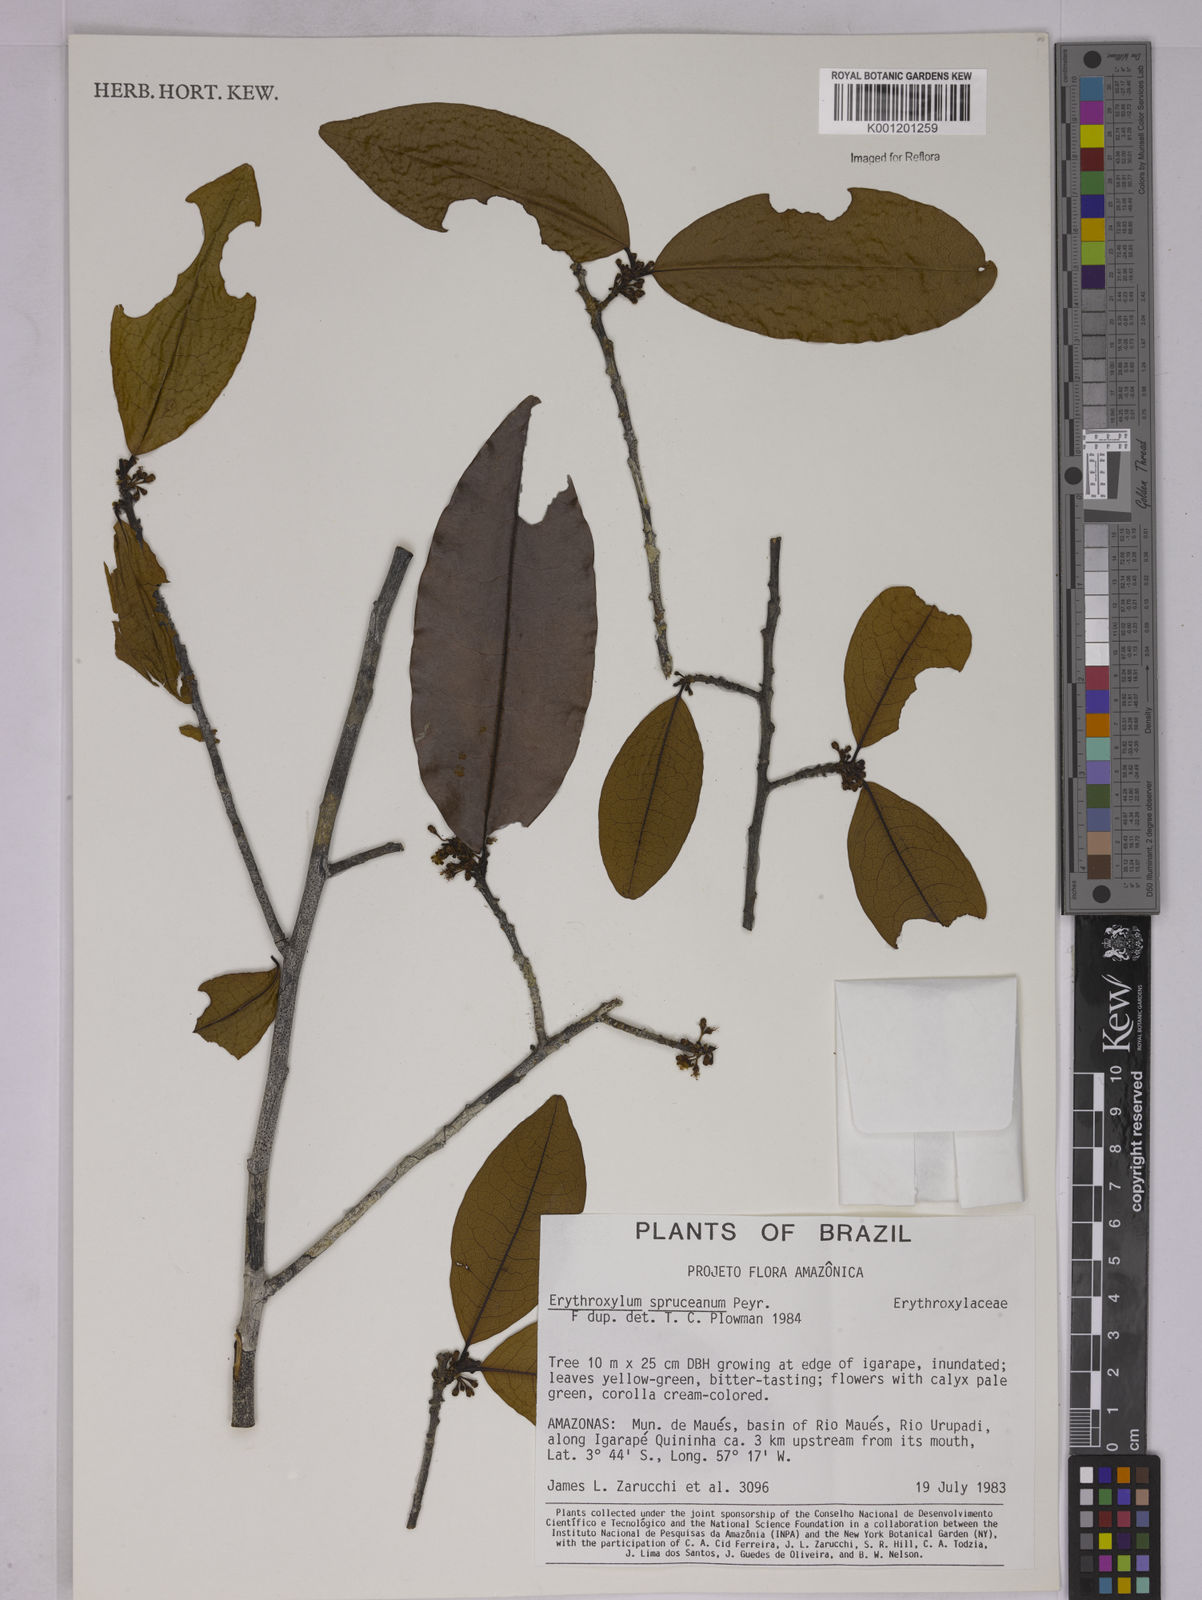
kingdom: Plantae
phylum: Tracheophyta
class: Magnoliopsida
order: Malpighiales
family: Erythroxylaceae
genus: Erythroxylum
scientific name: Erythroxylum spruceanum
